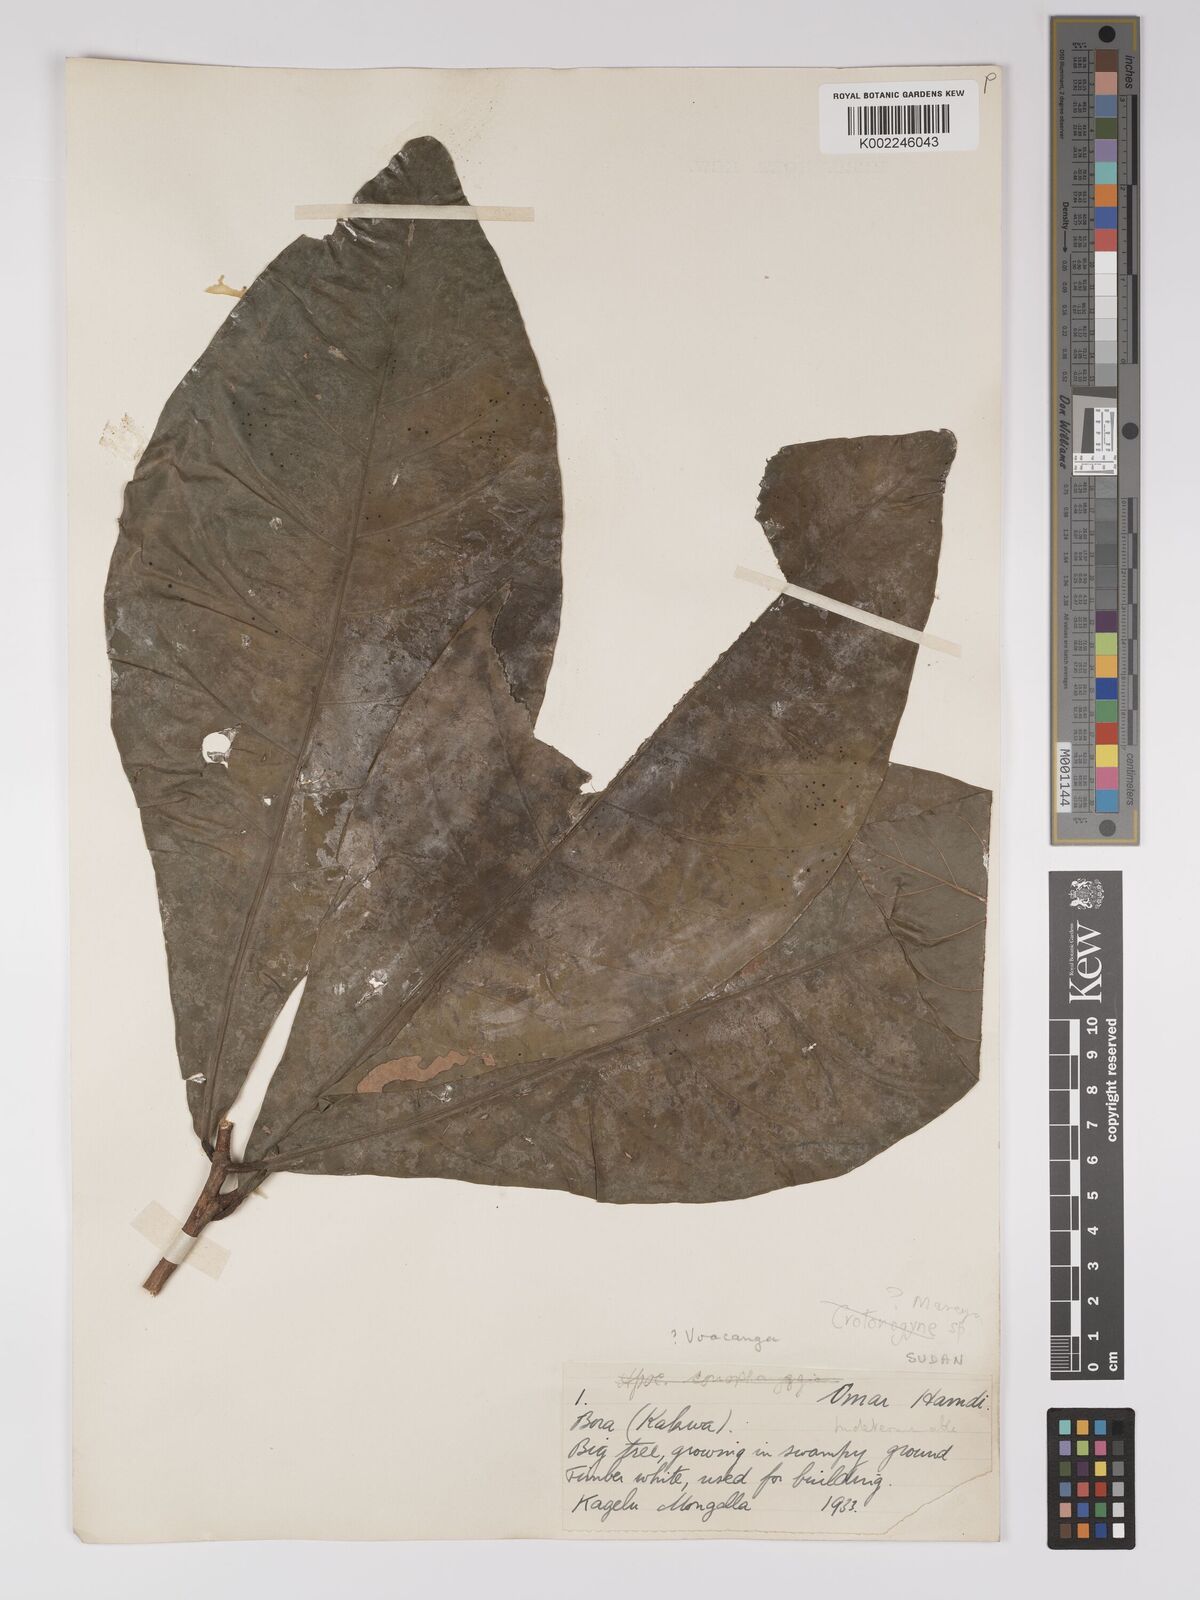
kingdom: Plantae
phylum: Tracheophyta
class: Magnoliopsida
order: Malpighiales
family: Euphorbiaceae
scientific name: Euphorbiaceae
